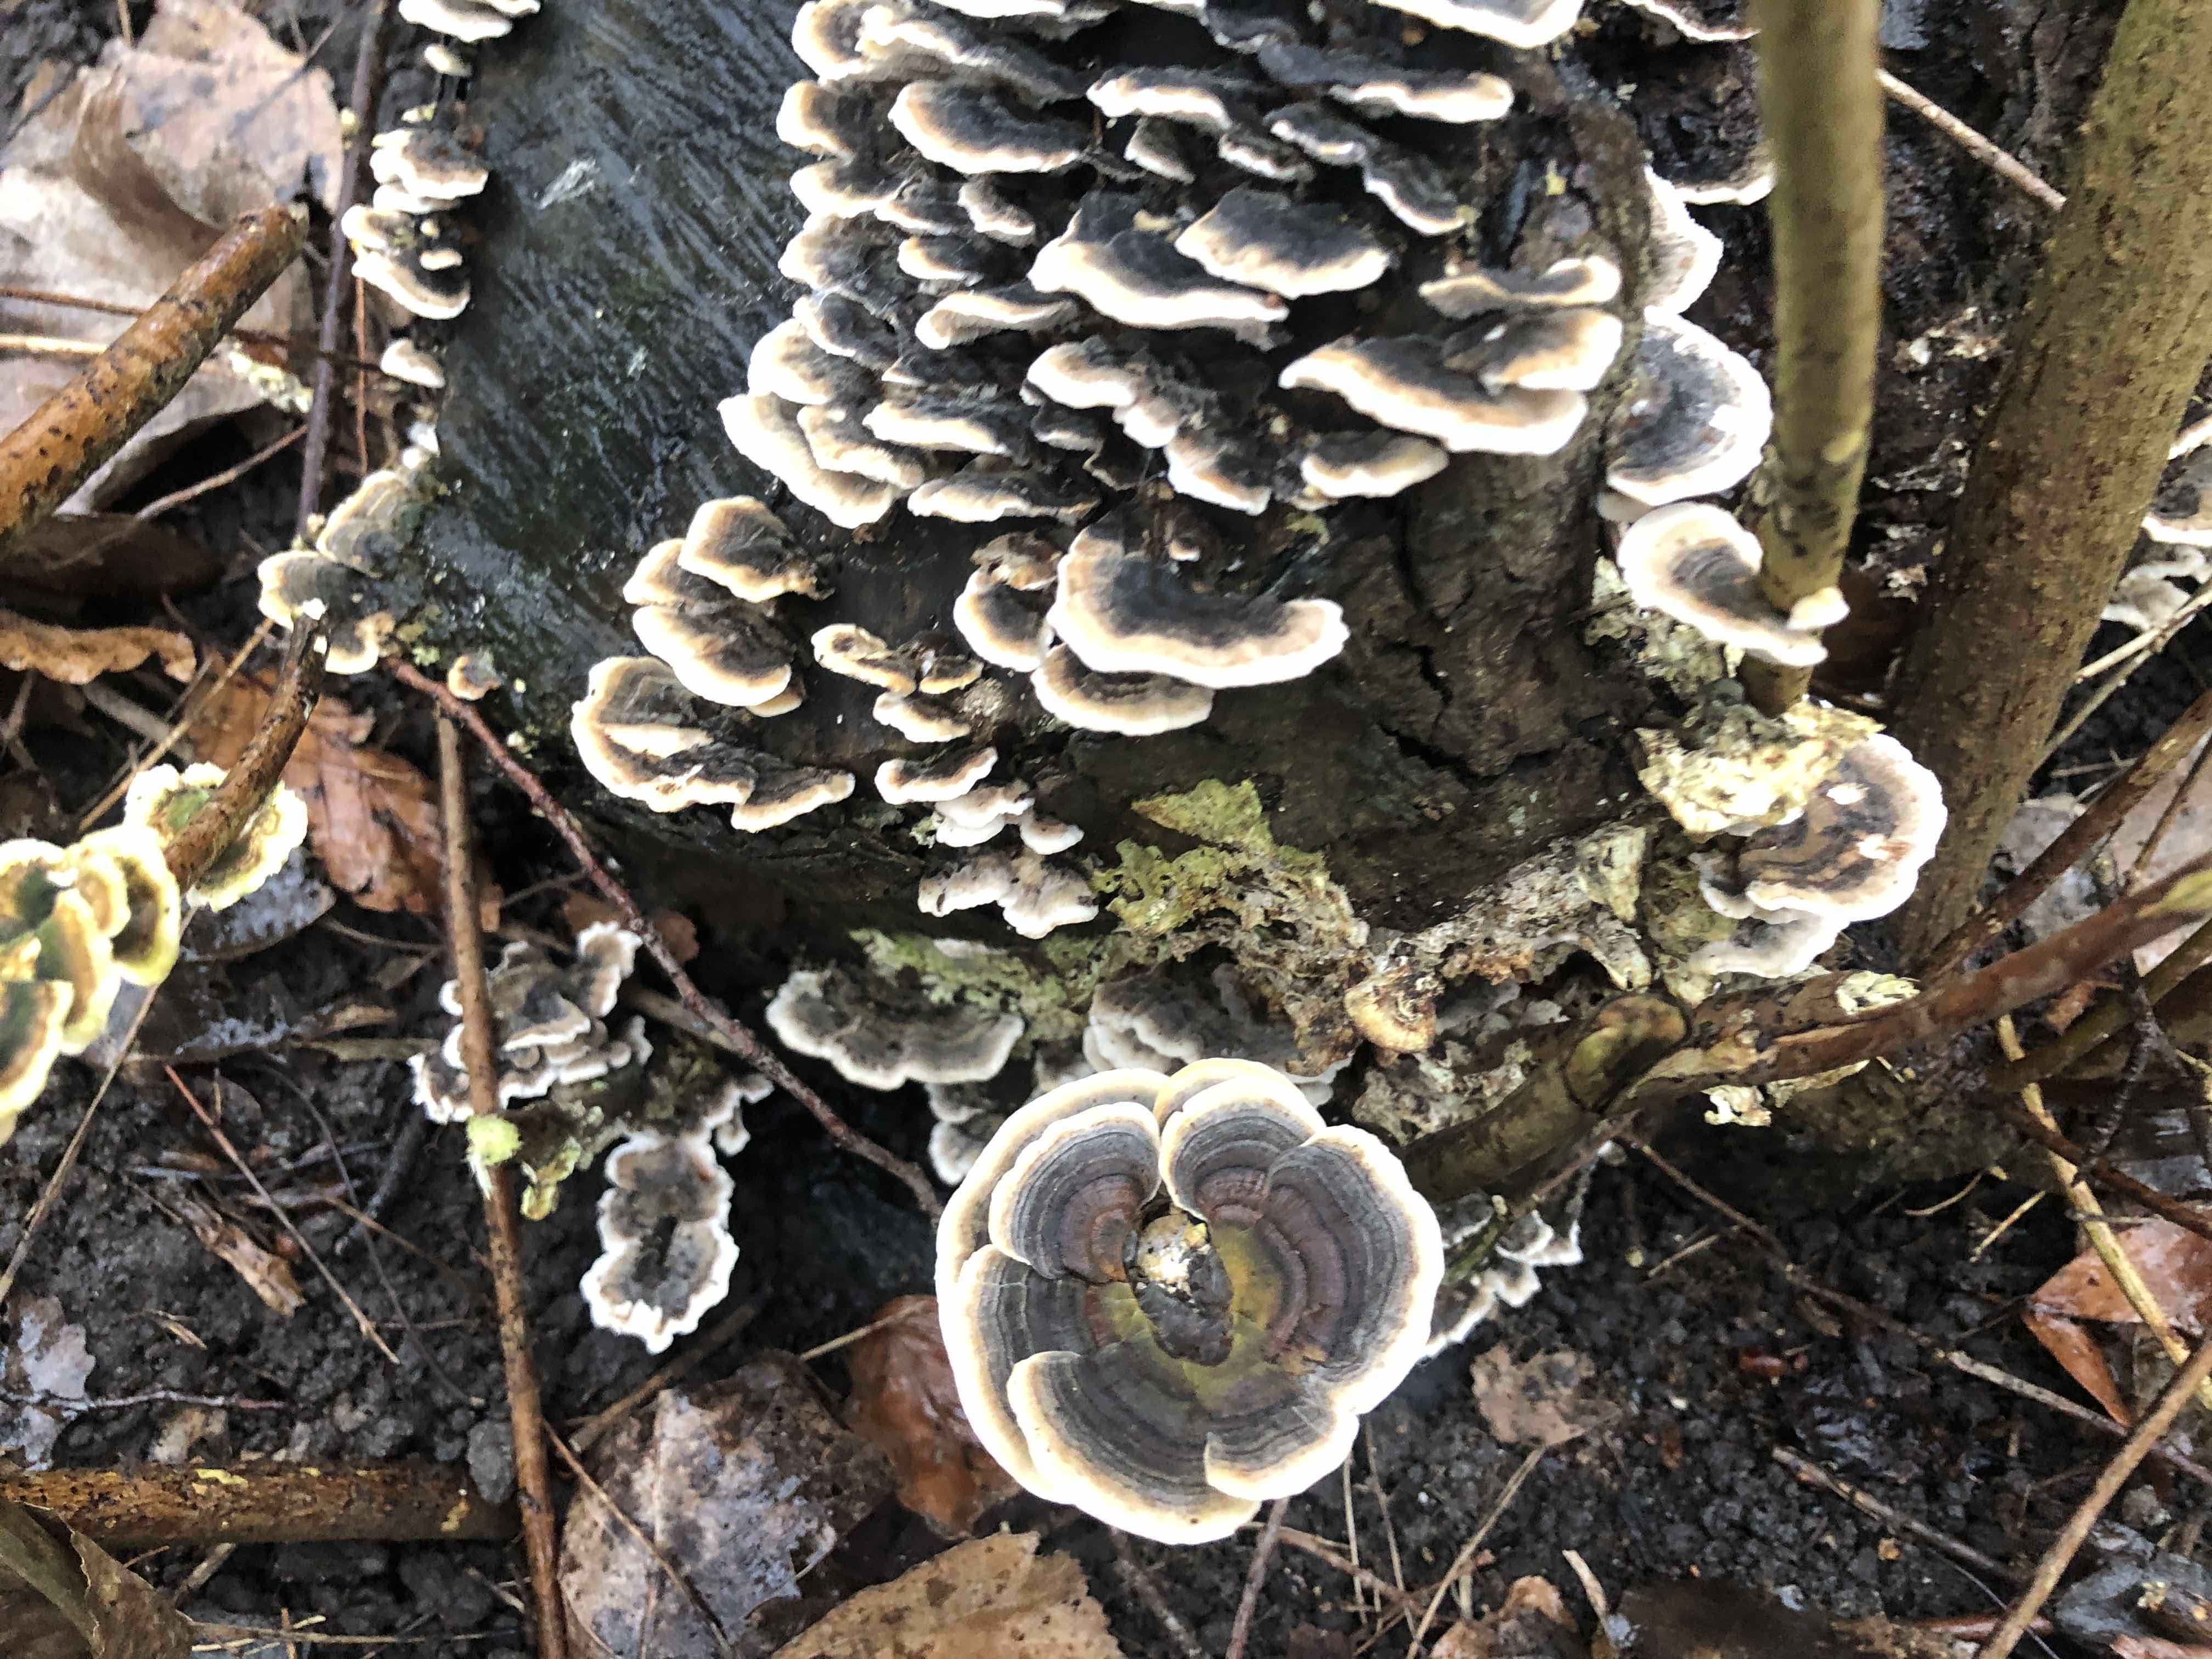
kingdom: Fungi
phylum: Basidiomycota
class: Agaricomycetes
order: Polyporales
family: Polyporaceae
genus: Trametes
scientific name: Trametes versicolor
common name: broget læderporesvamp
